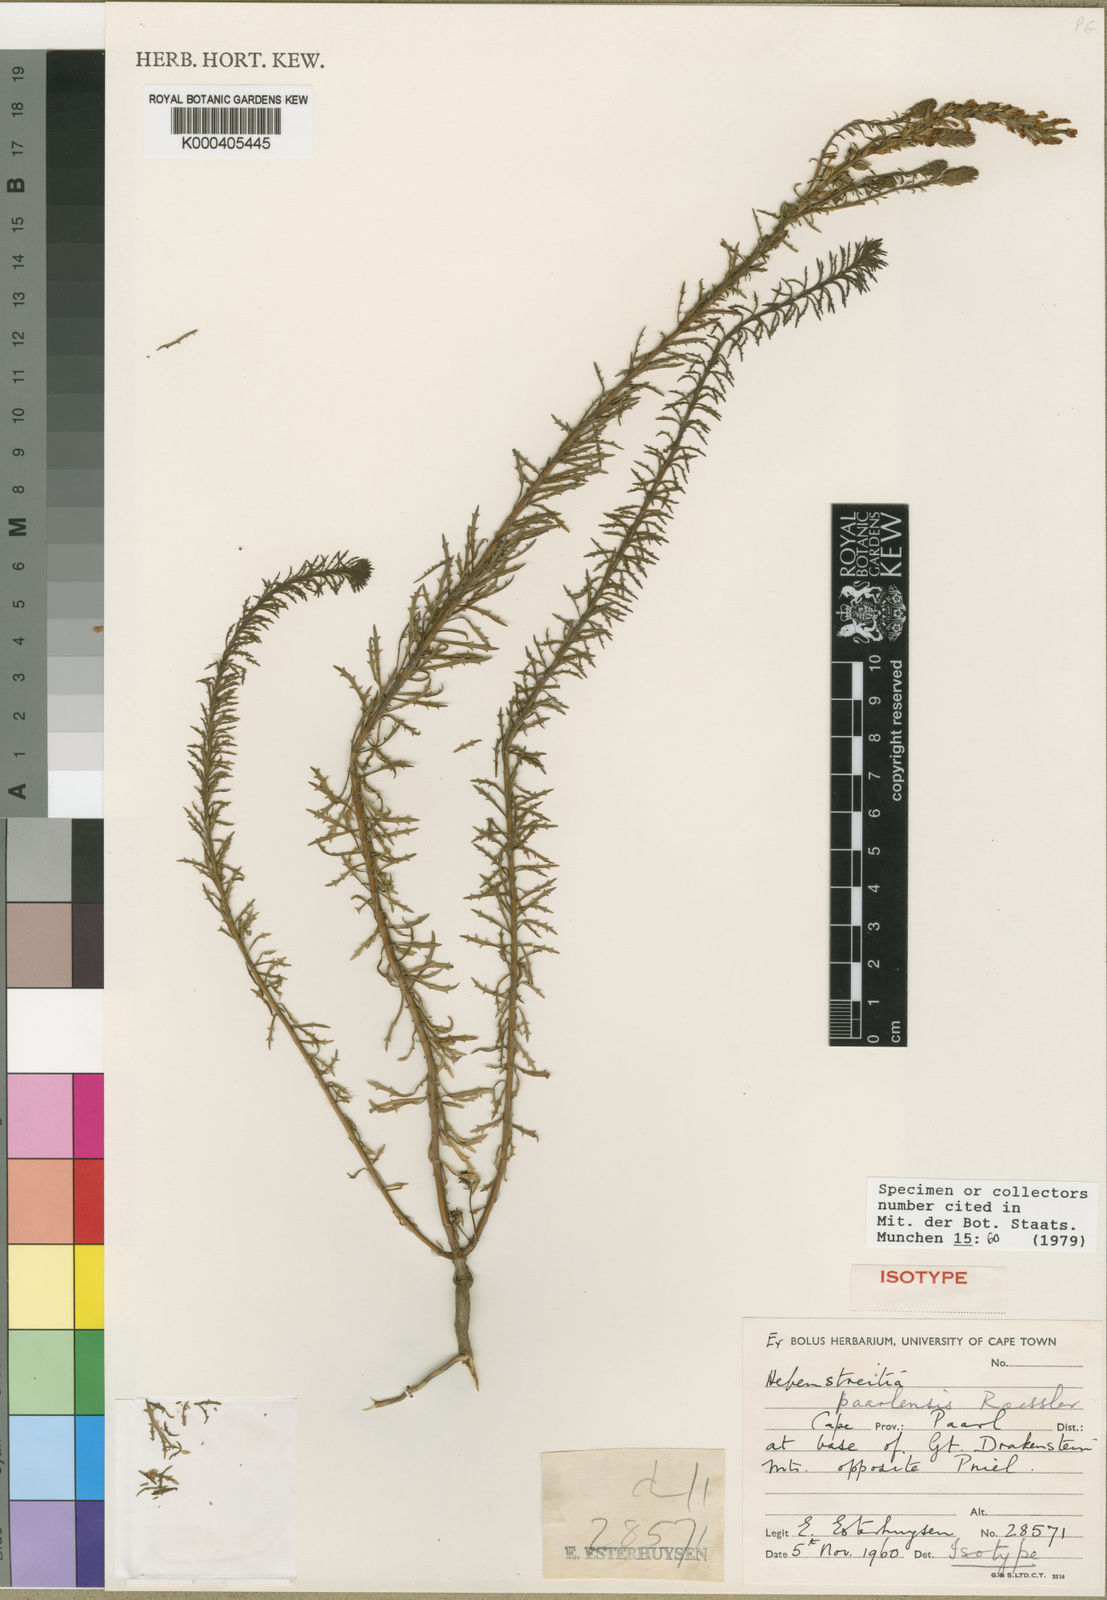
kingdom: Plantae
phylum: Tracheophyta
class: Magnoliopsida
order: Lamiales
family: Scrophulariaceae
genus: Hebenstretia
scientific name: Hebenstretia paarlensis
